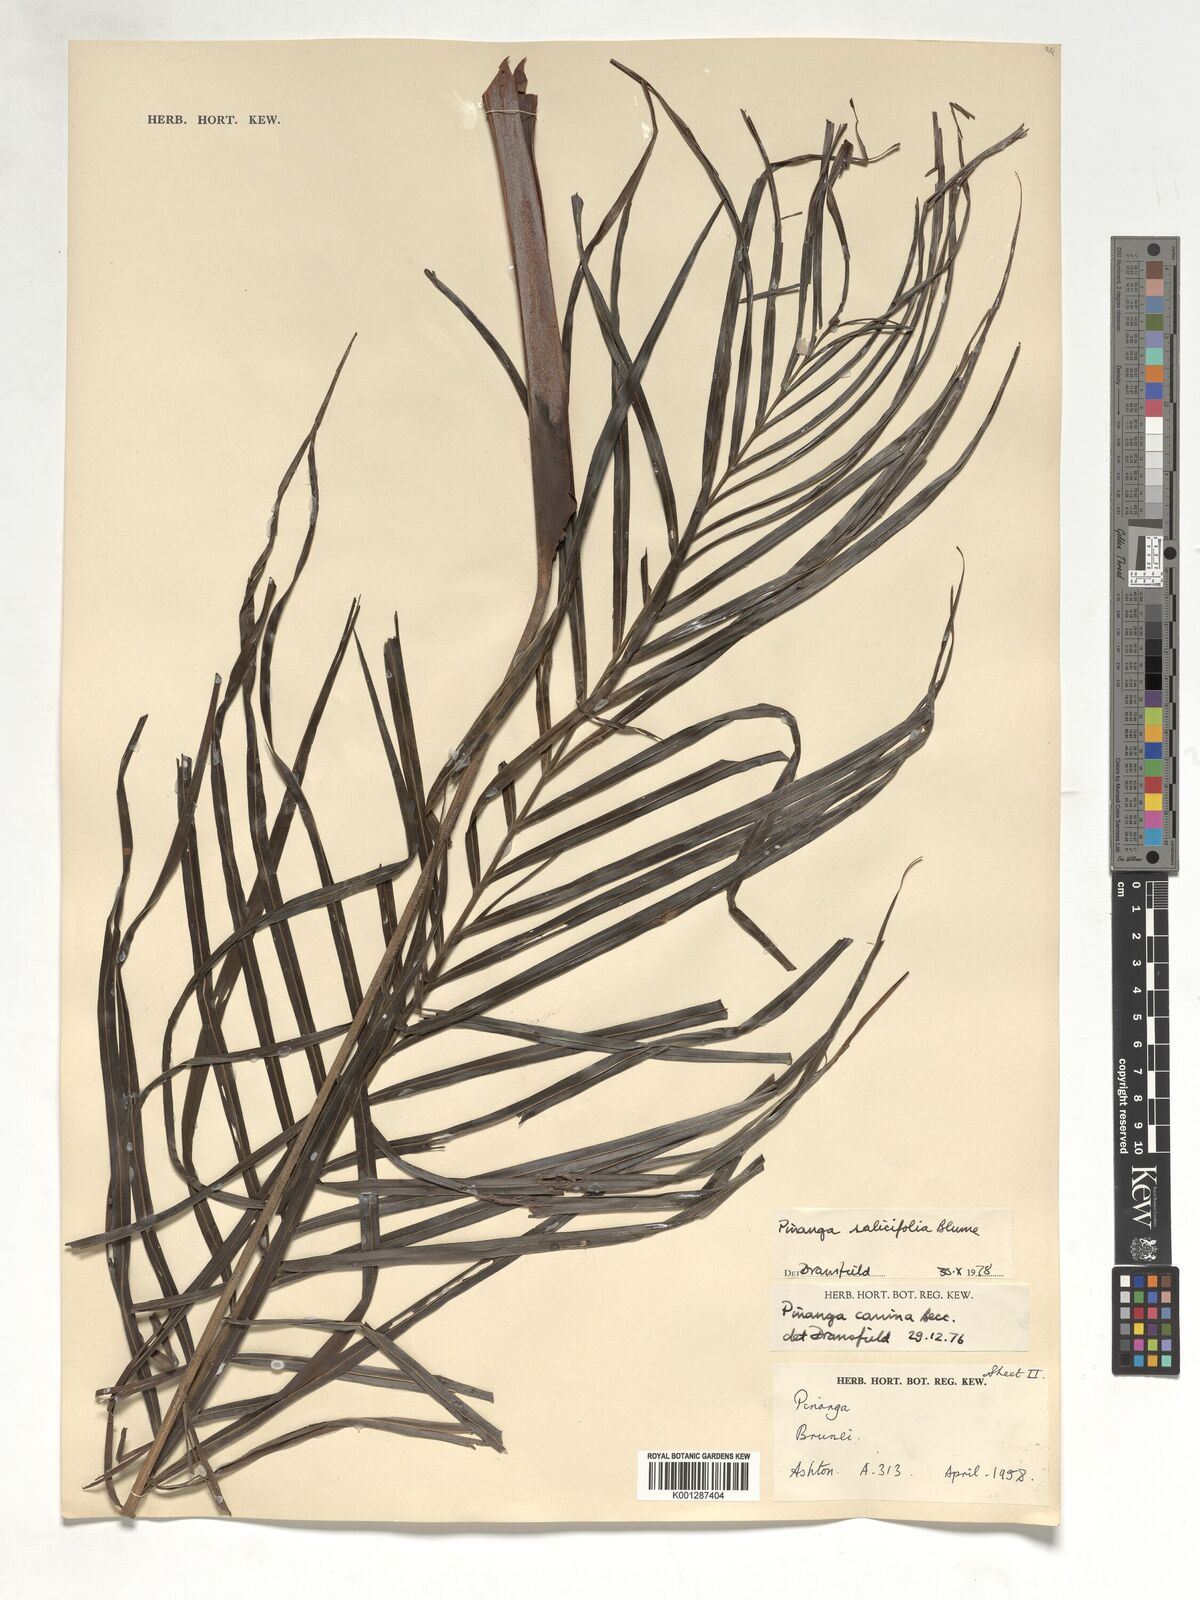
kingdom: Plantae
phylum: Tracheophyta
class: Liliopsida
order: Arecales
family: Arecaceae
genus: Pinanga
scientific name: Pinanga salicifolia
